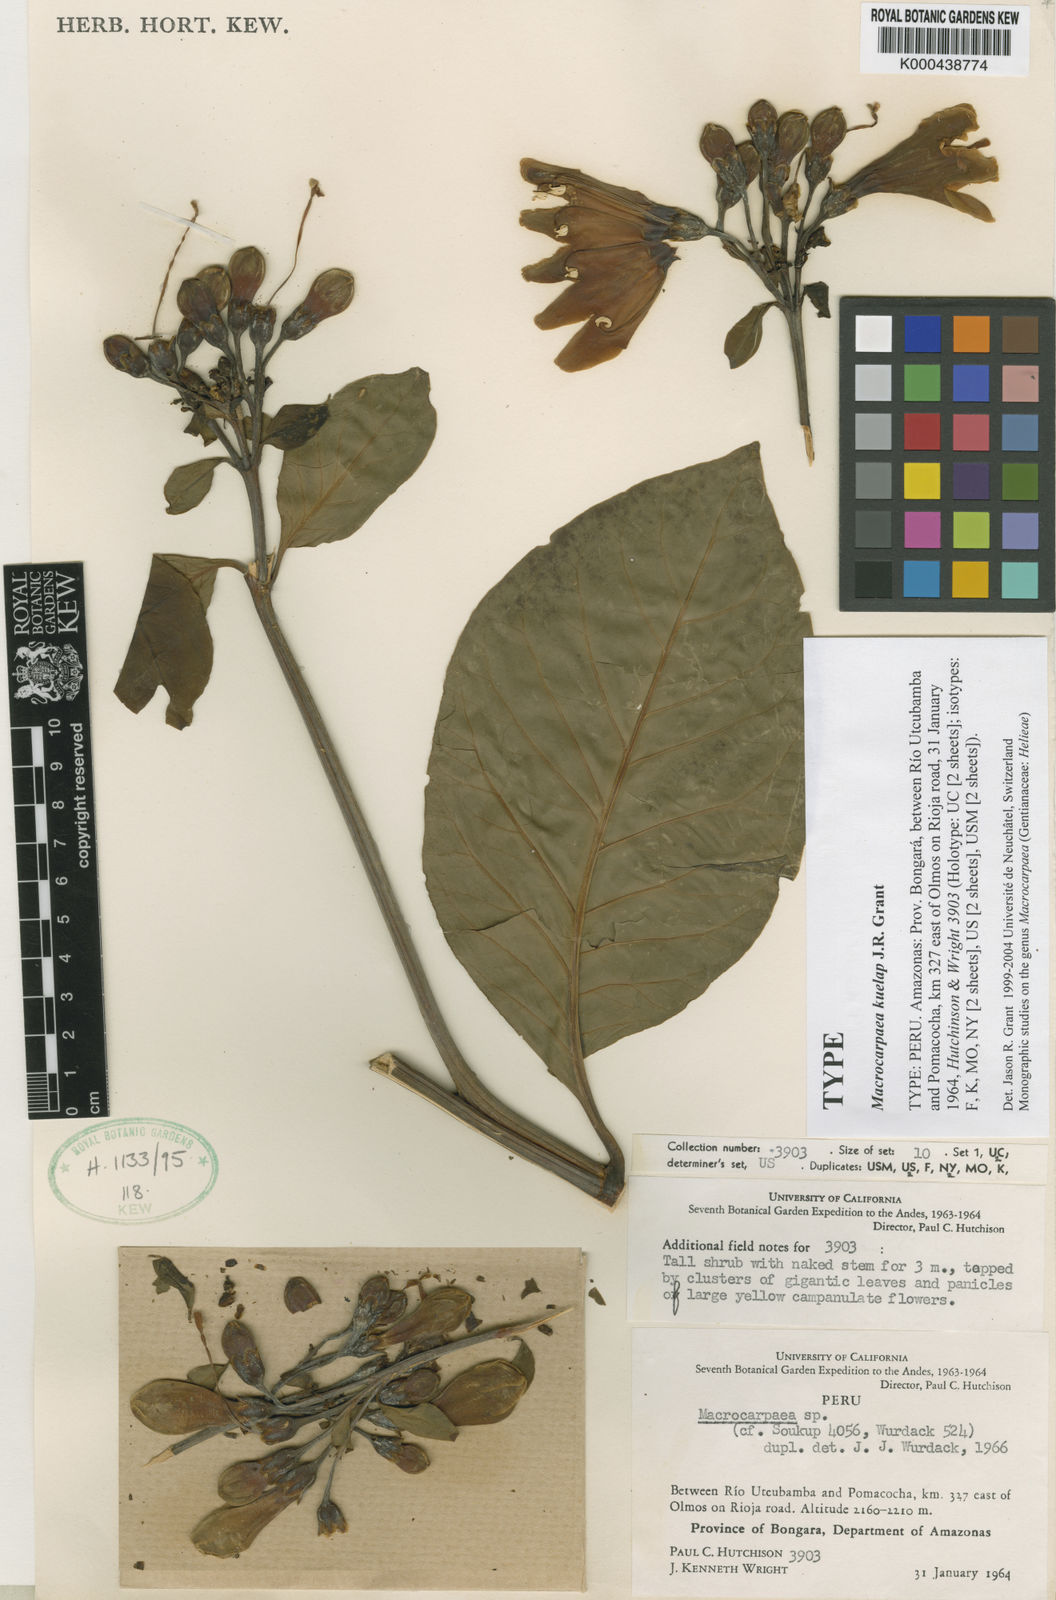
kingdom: Plantae
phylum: Tracheophyta
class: Magnoliopsida
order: Gentianales
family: Gentianaceae
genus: Macrocarpaea
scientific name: Macrocarpaea kuelap
